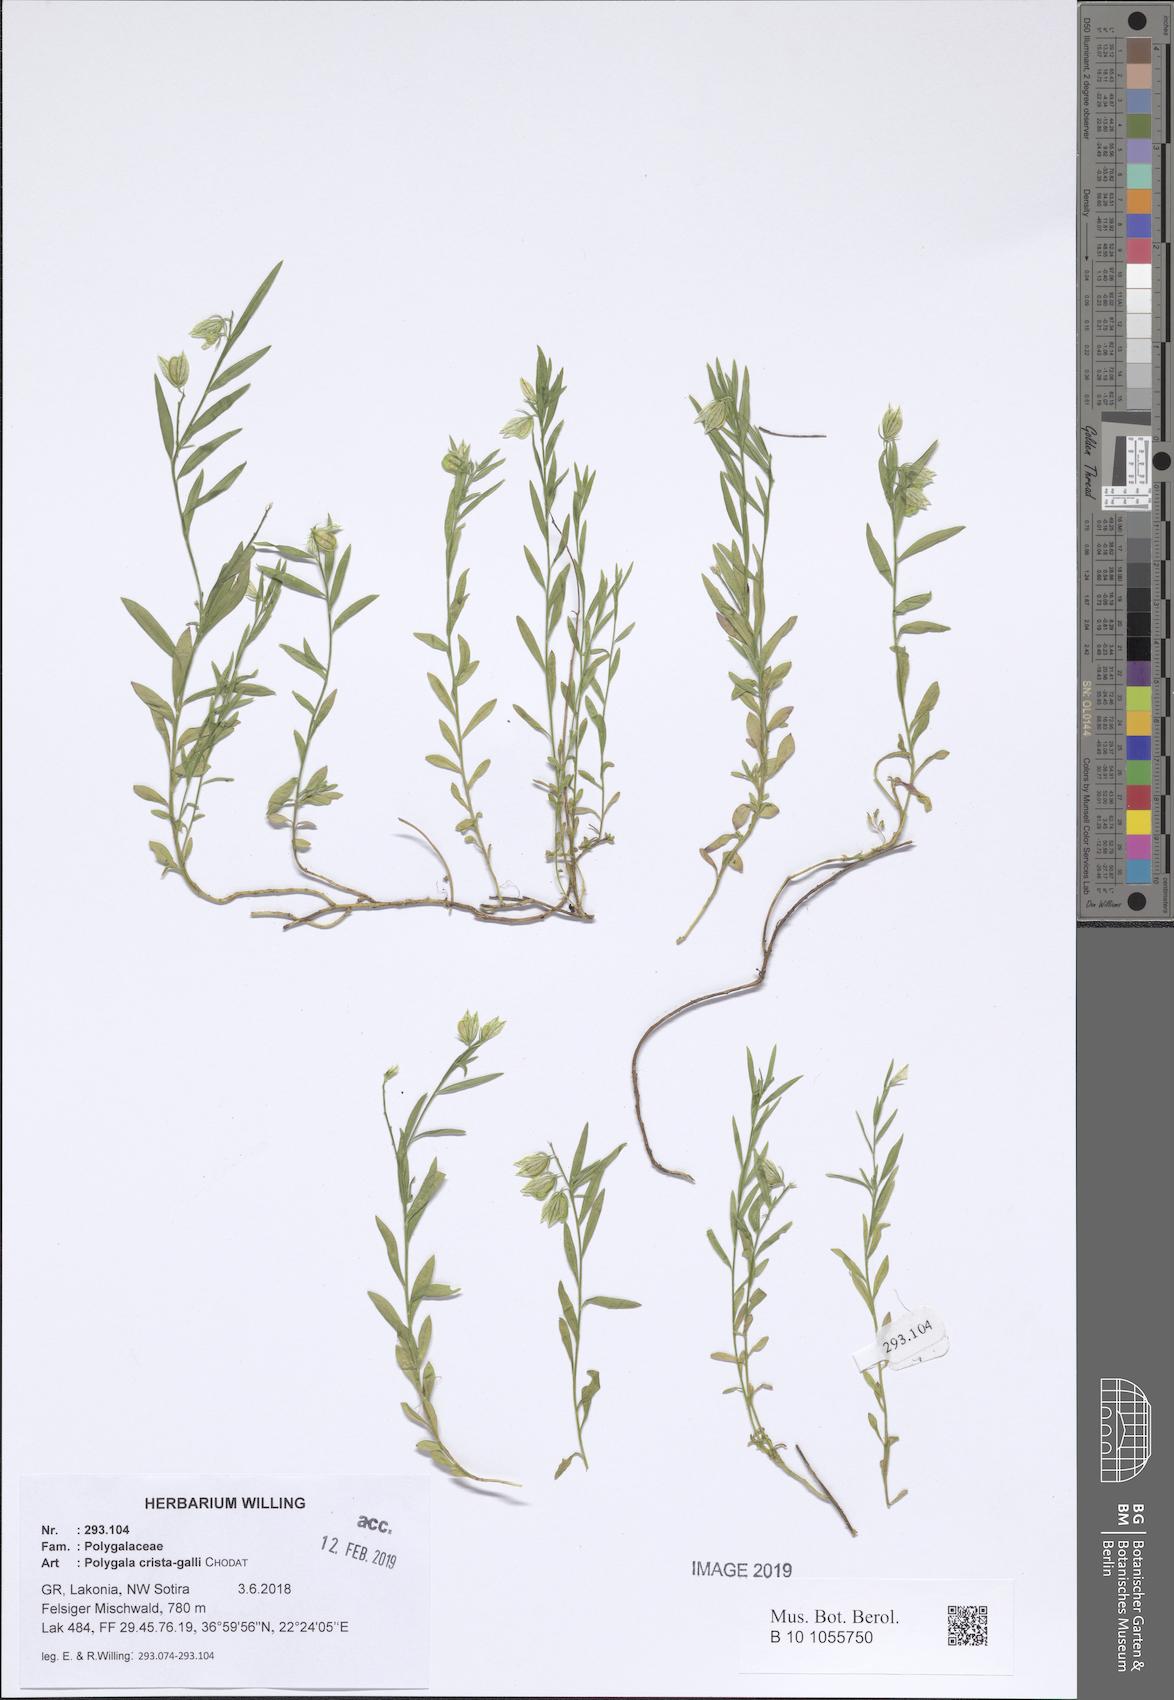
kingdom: Plantae
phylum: Tracheophyta
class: Magnoliopsida
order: Fabales
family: Polygalaceae
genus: Polygala
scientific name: Polygala crista-galli
